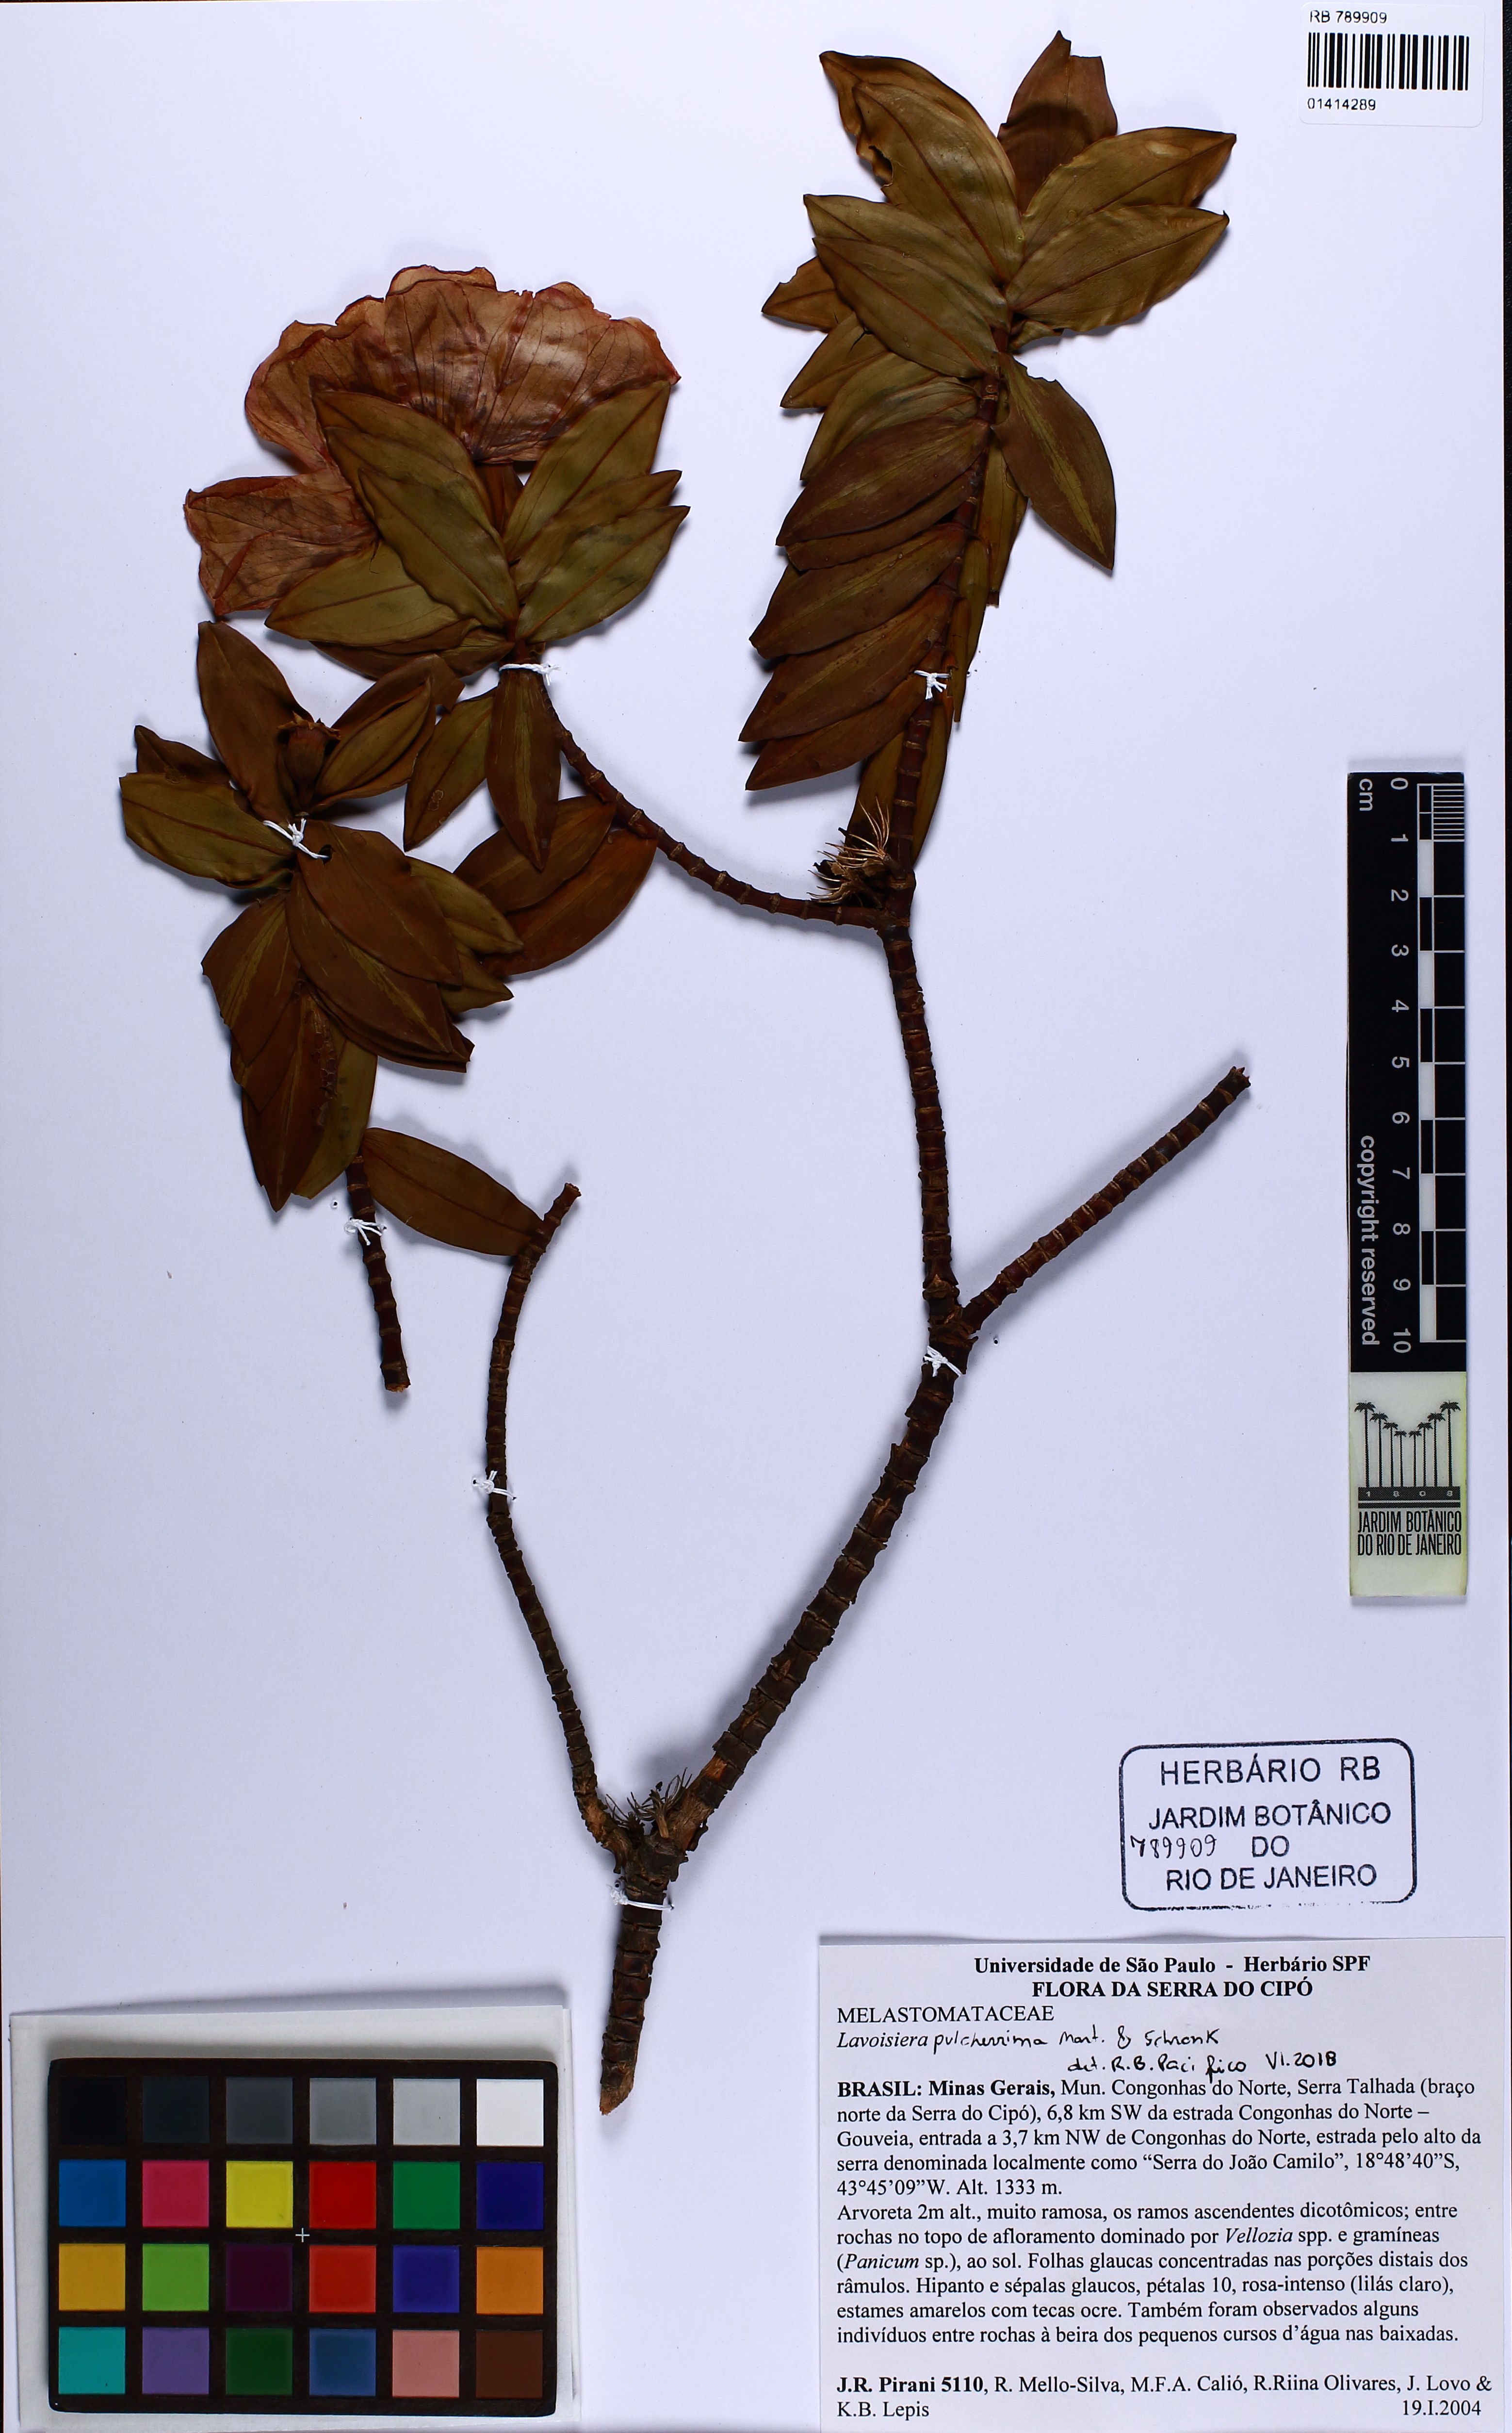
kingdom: Plantae
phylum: Tracheophyta
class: Magnoliopsida
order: Myrtales
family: Melastomataceae
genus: Microlicia
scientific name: Microlicia pulcherrima
